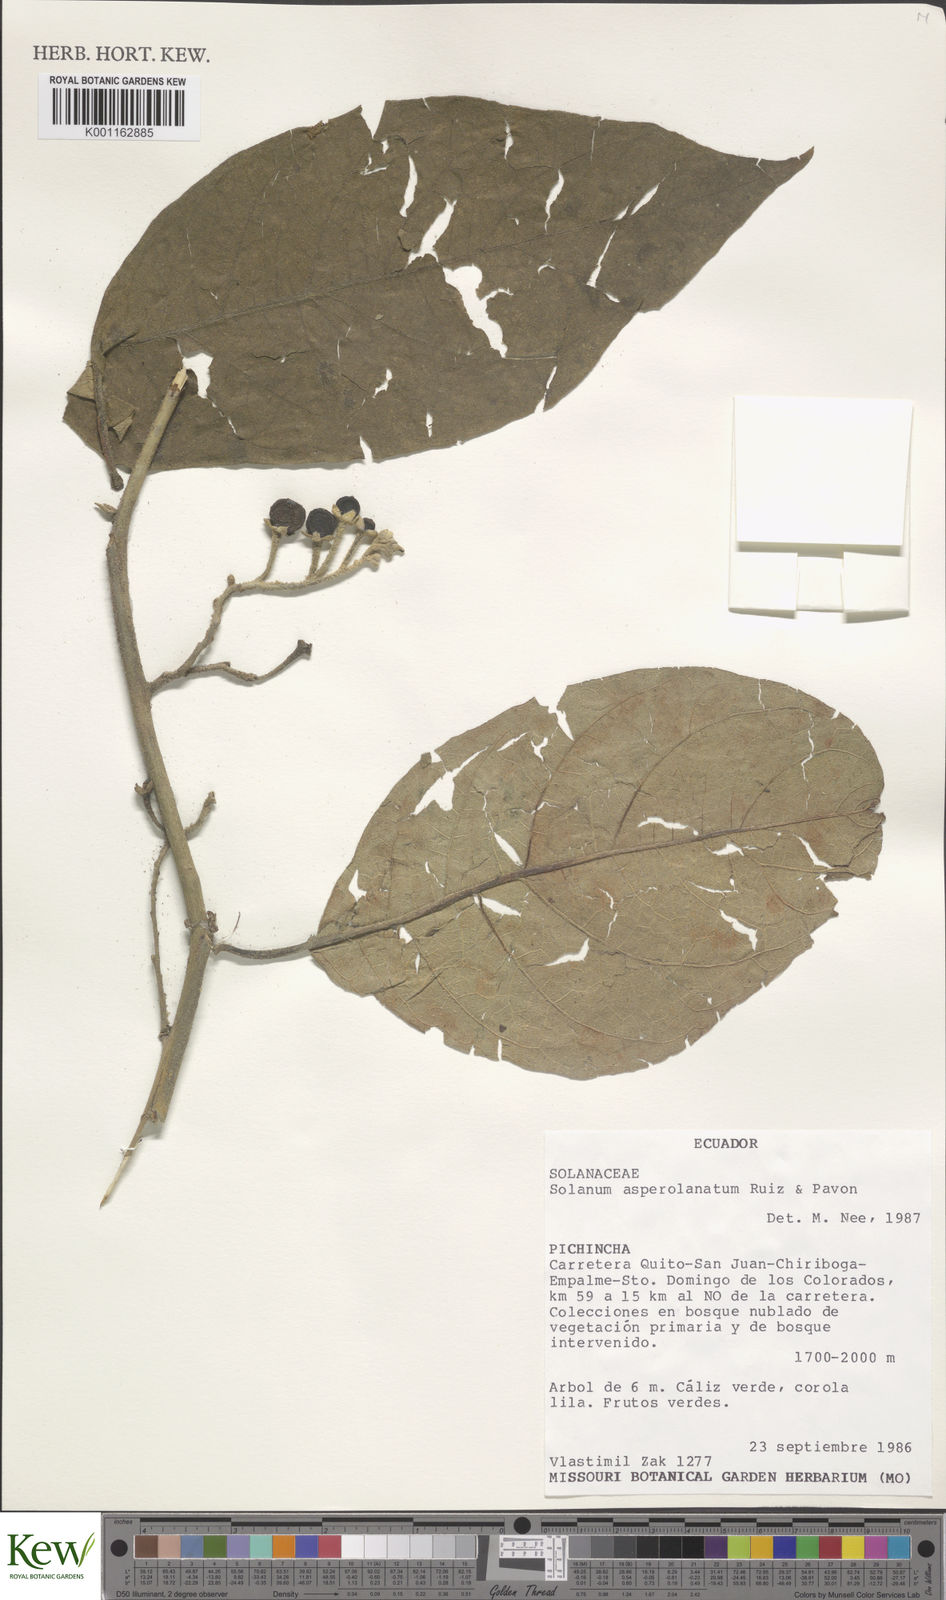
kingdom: Plantae
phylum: Tracheophyta
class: Magnoliopsida
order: Solanales
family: Solanaceae
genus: Solanum
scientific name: Solanum asperolanatum
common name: Devil's-fig
